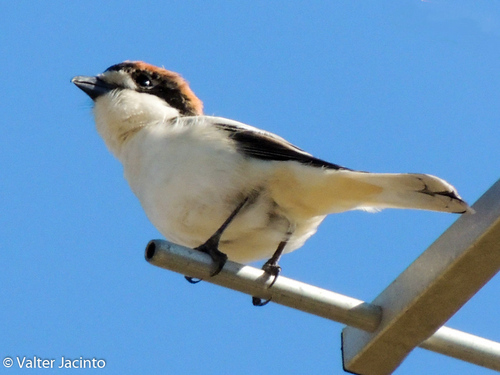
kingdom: Animalia
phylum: Chordata
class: Aves
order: Passeriformes
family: Laniidae
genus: Lanius
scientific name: Lanius senator
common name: Woodchat shrike
